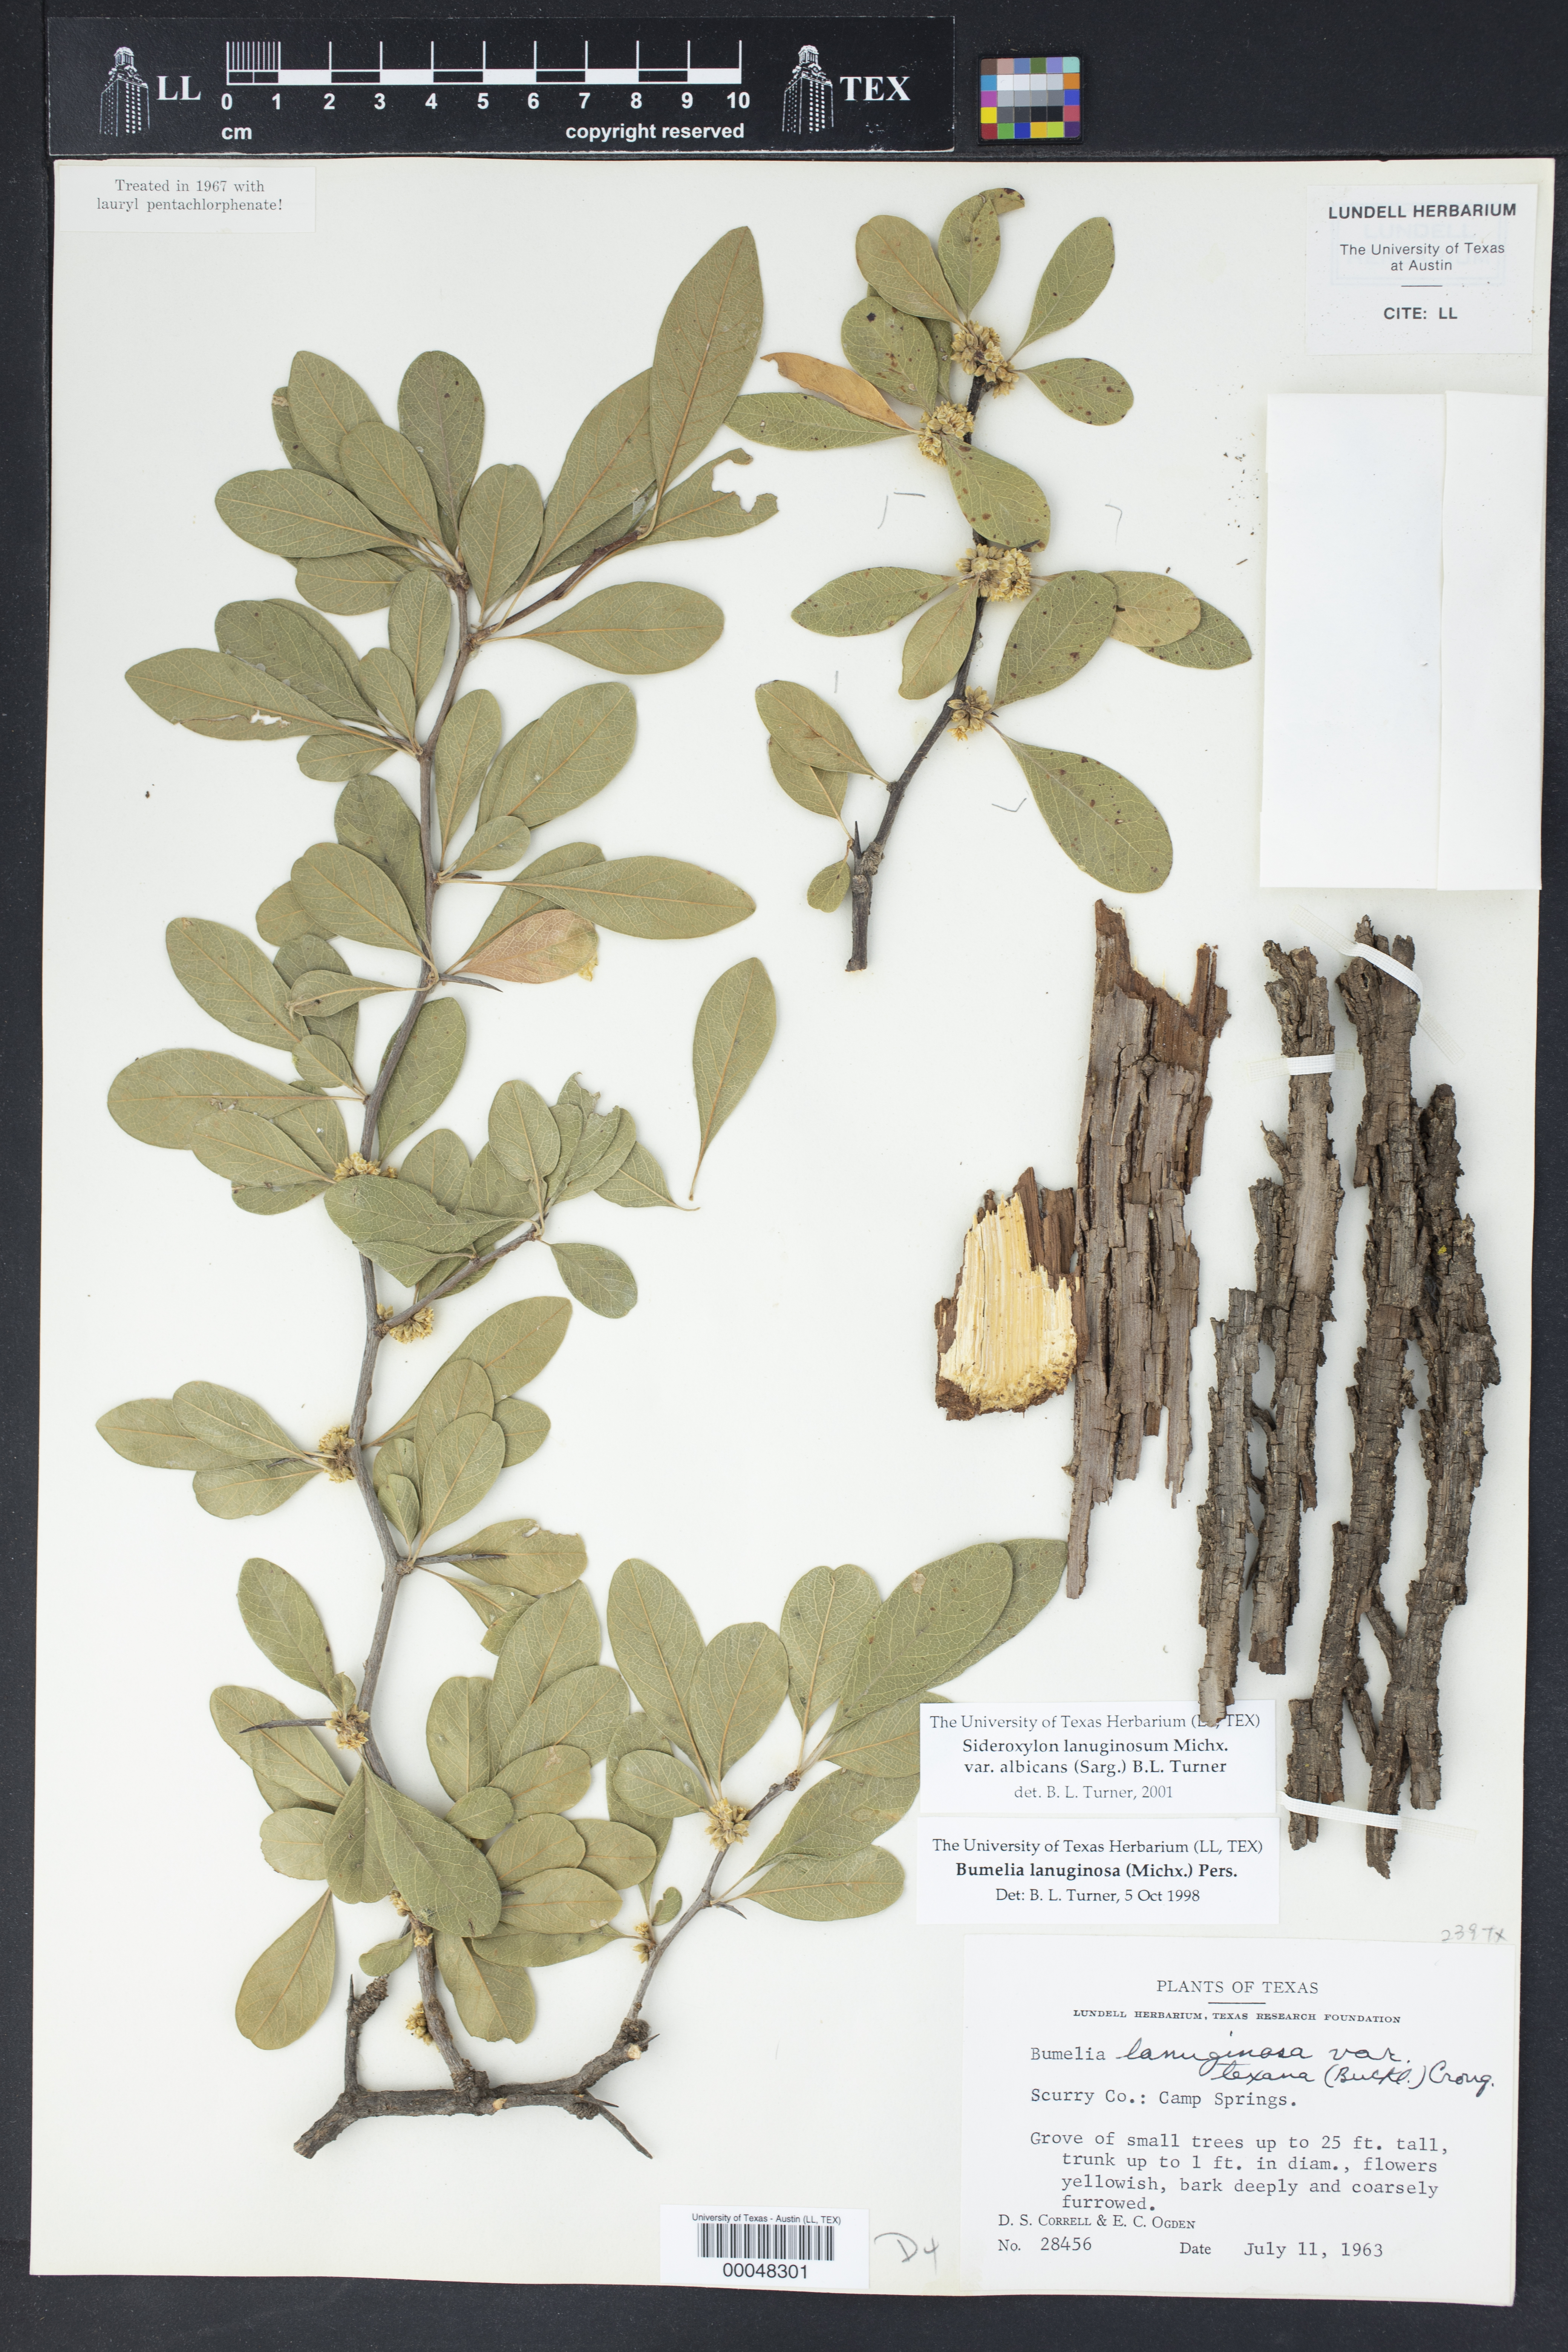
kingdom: Plantae
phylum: Tracheophyta
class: Magnoliopsida
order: Ericales
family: Sapotaceae
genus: Sideroxylon
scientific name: Sideroxylon lanuginosum
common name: Chittamwood
